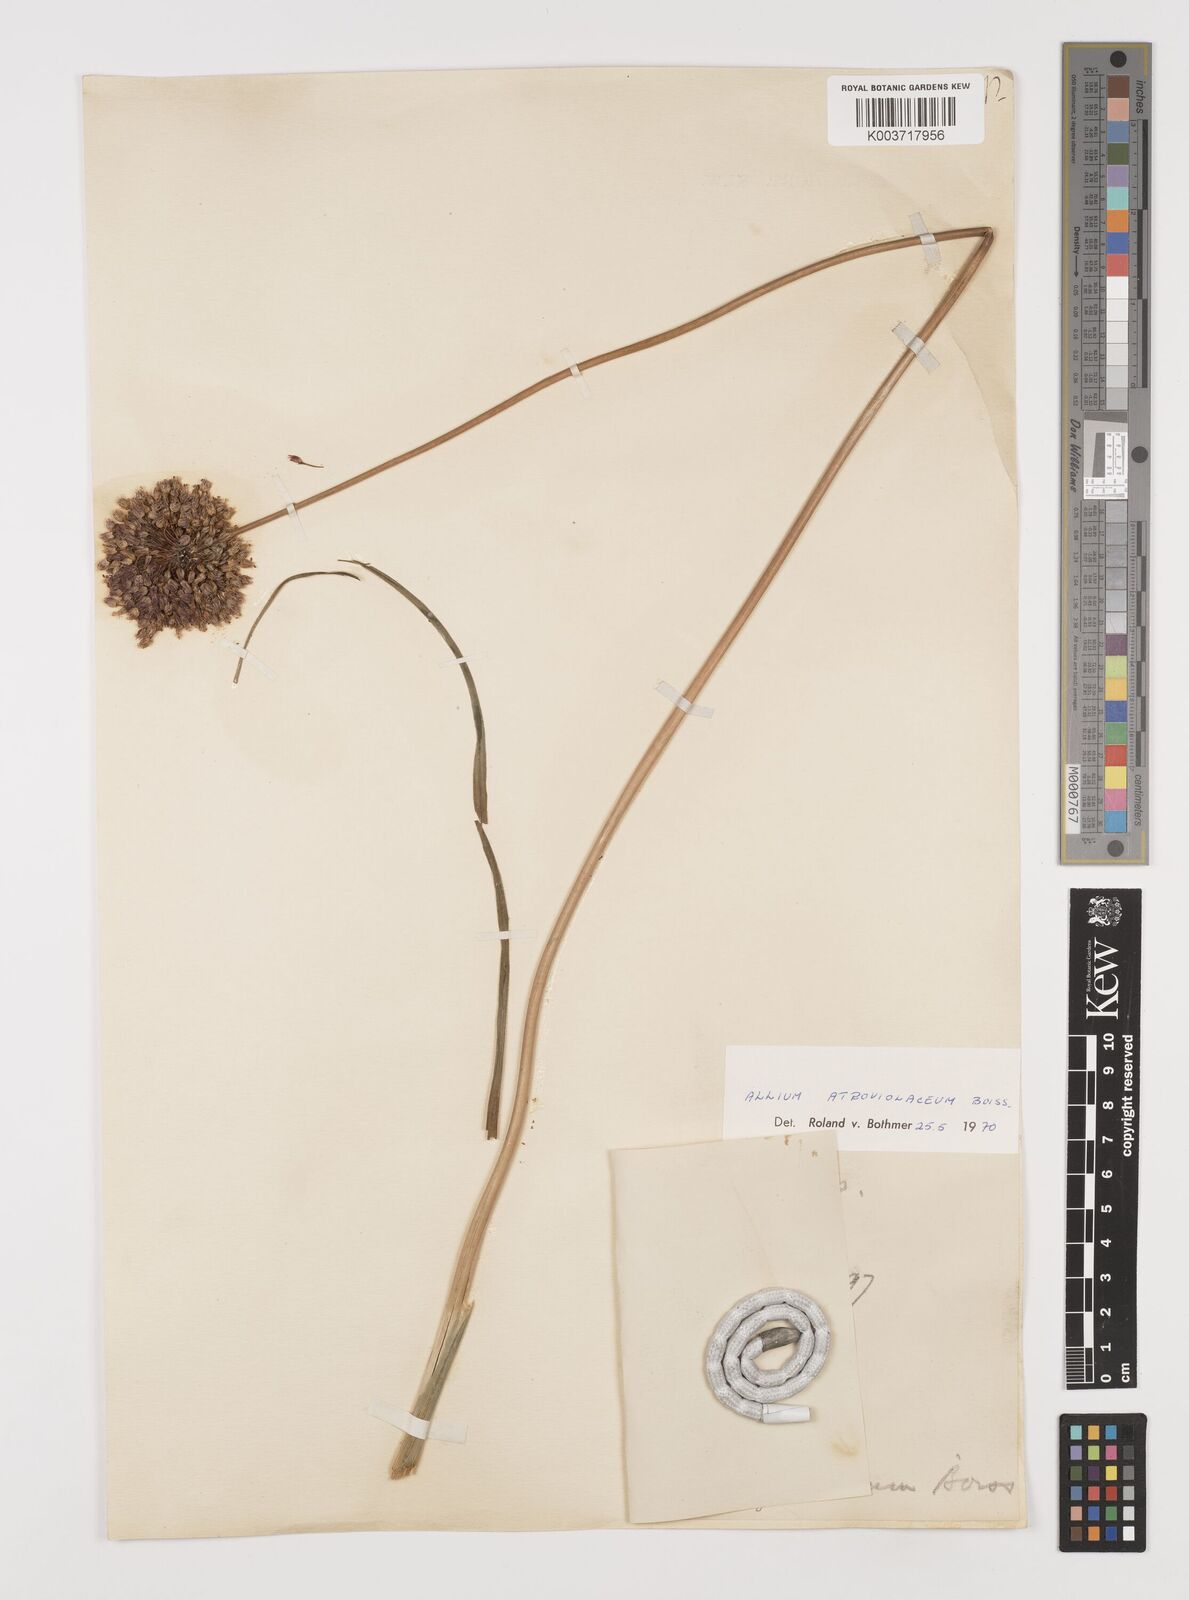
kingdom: Plantae
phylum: Tracheophyta
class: Liliopsida
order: Asparagales
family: Amaryllidaceae
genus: Allium
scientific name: Allium atroviolaceum
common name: Broadleaf wild leek
